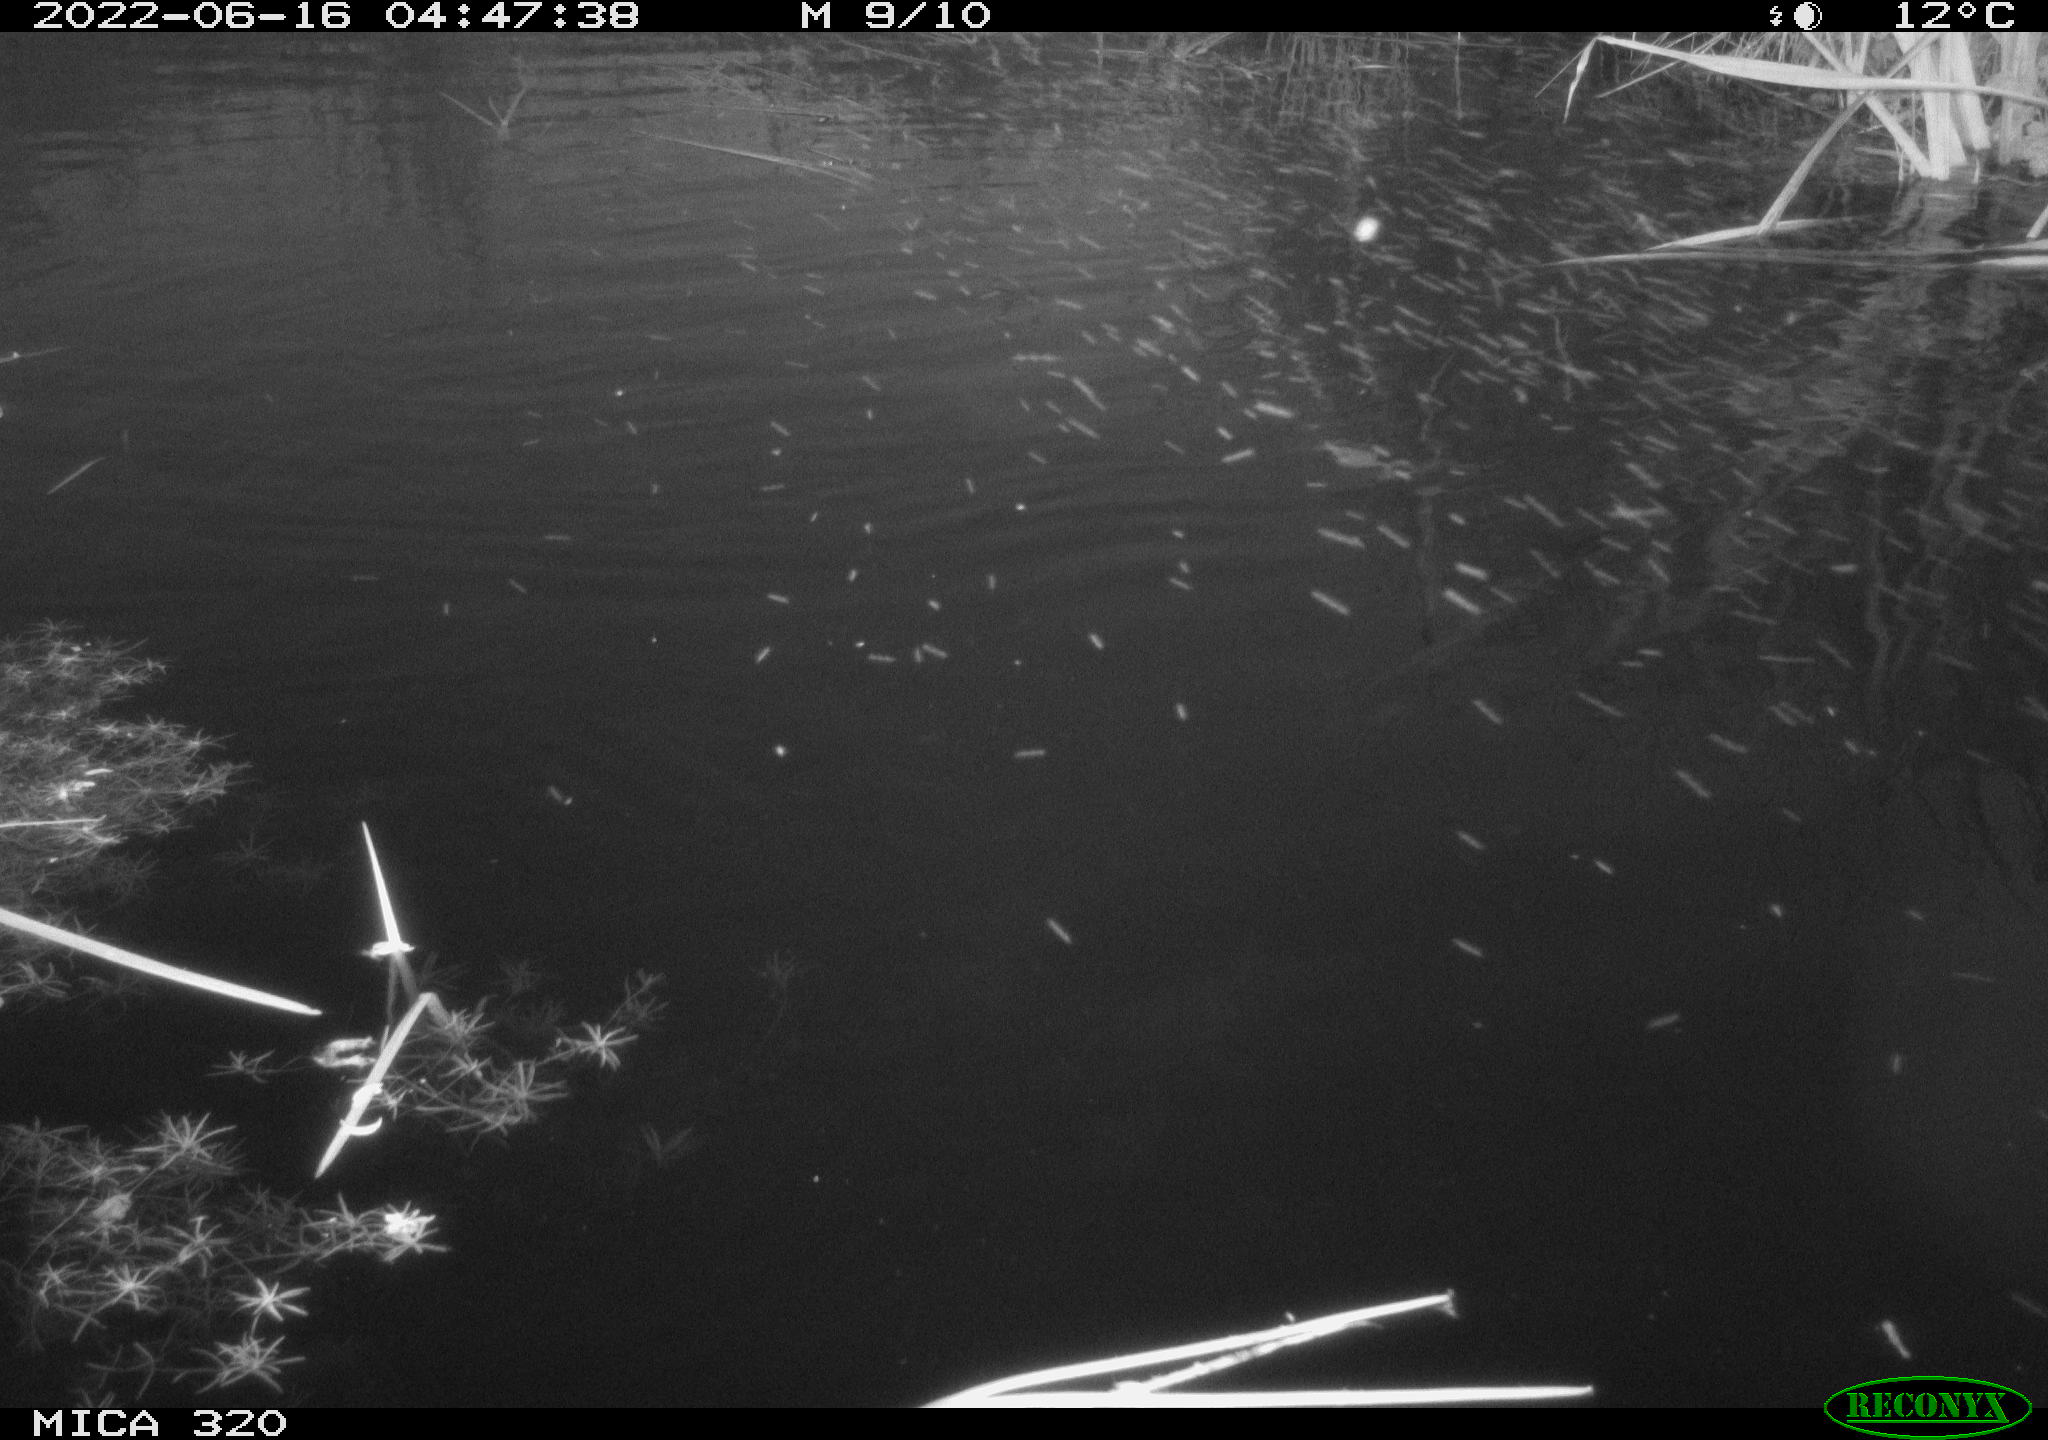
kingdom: Animalia
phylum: Chordata
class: Aves
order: Anseriformes
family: Anatidae
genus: Anas
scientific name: Anas platyrhynchos
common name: Mallard
